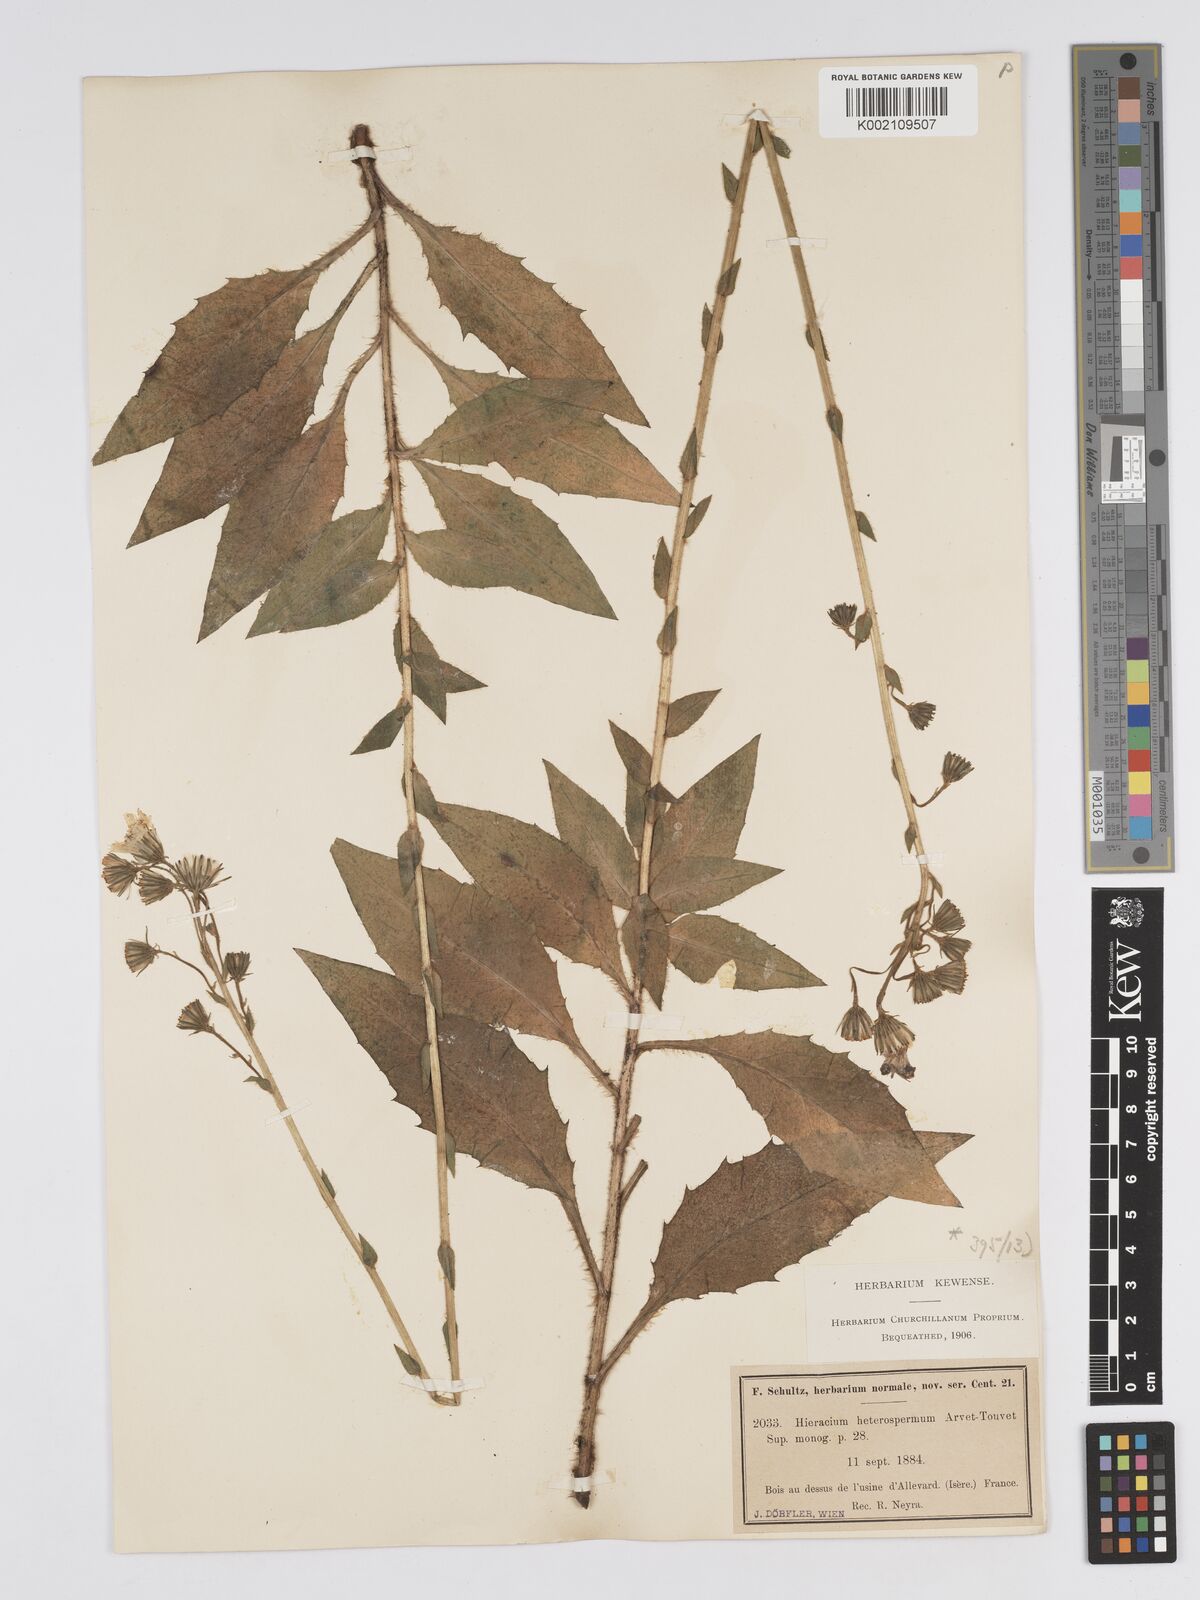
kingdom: Plantae
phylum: Tracheophyta
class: Magnoliopsida
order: Asterales
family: Asteraceae
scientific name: Asteraceae
